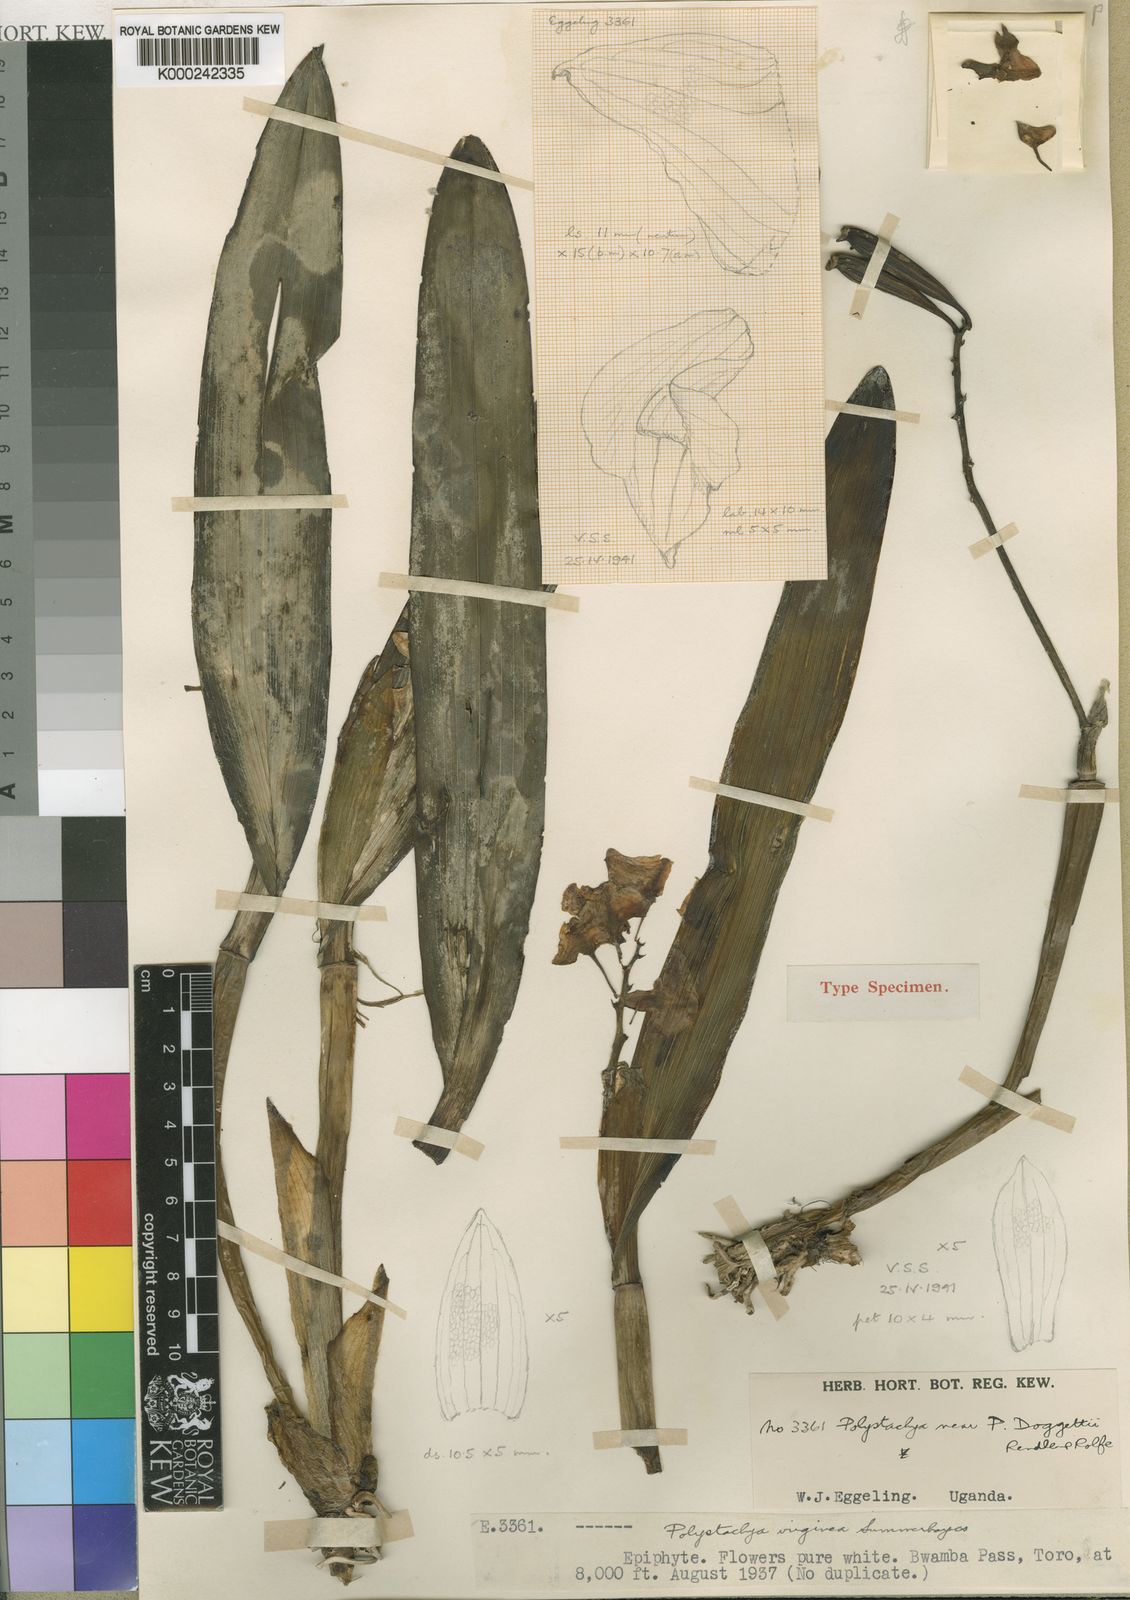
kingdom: Plantae
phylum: Tracheophyta
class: Liliopsida
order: Asparagales
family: Orchidaceae
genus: Polystachya
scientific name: Polystachya virginea
